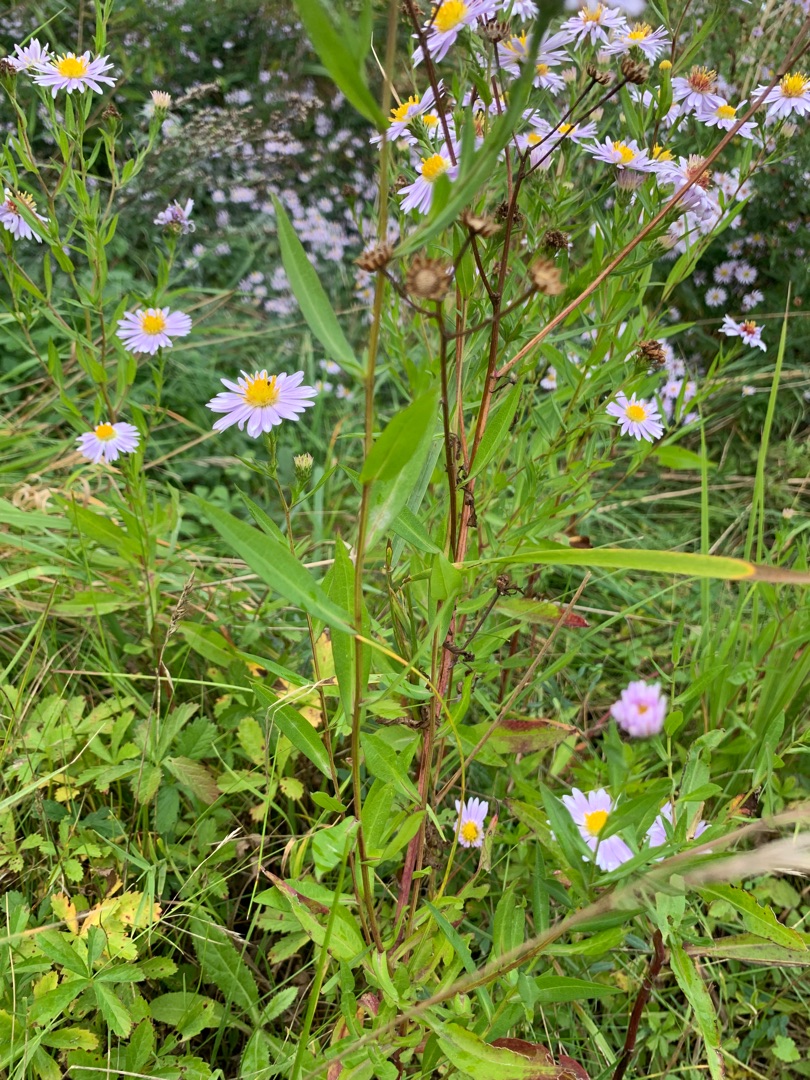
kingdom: Plantae
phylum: Tracheophyta
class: Magnoliopsida
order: Asterales
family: Asteraceae
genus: Symphyotrichum
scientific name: Symphyotrichum
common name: Asters (Symphyotrichum-slægten)
